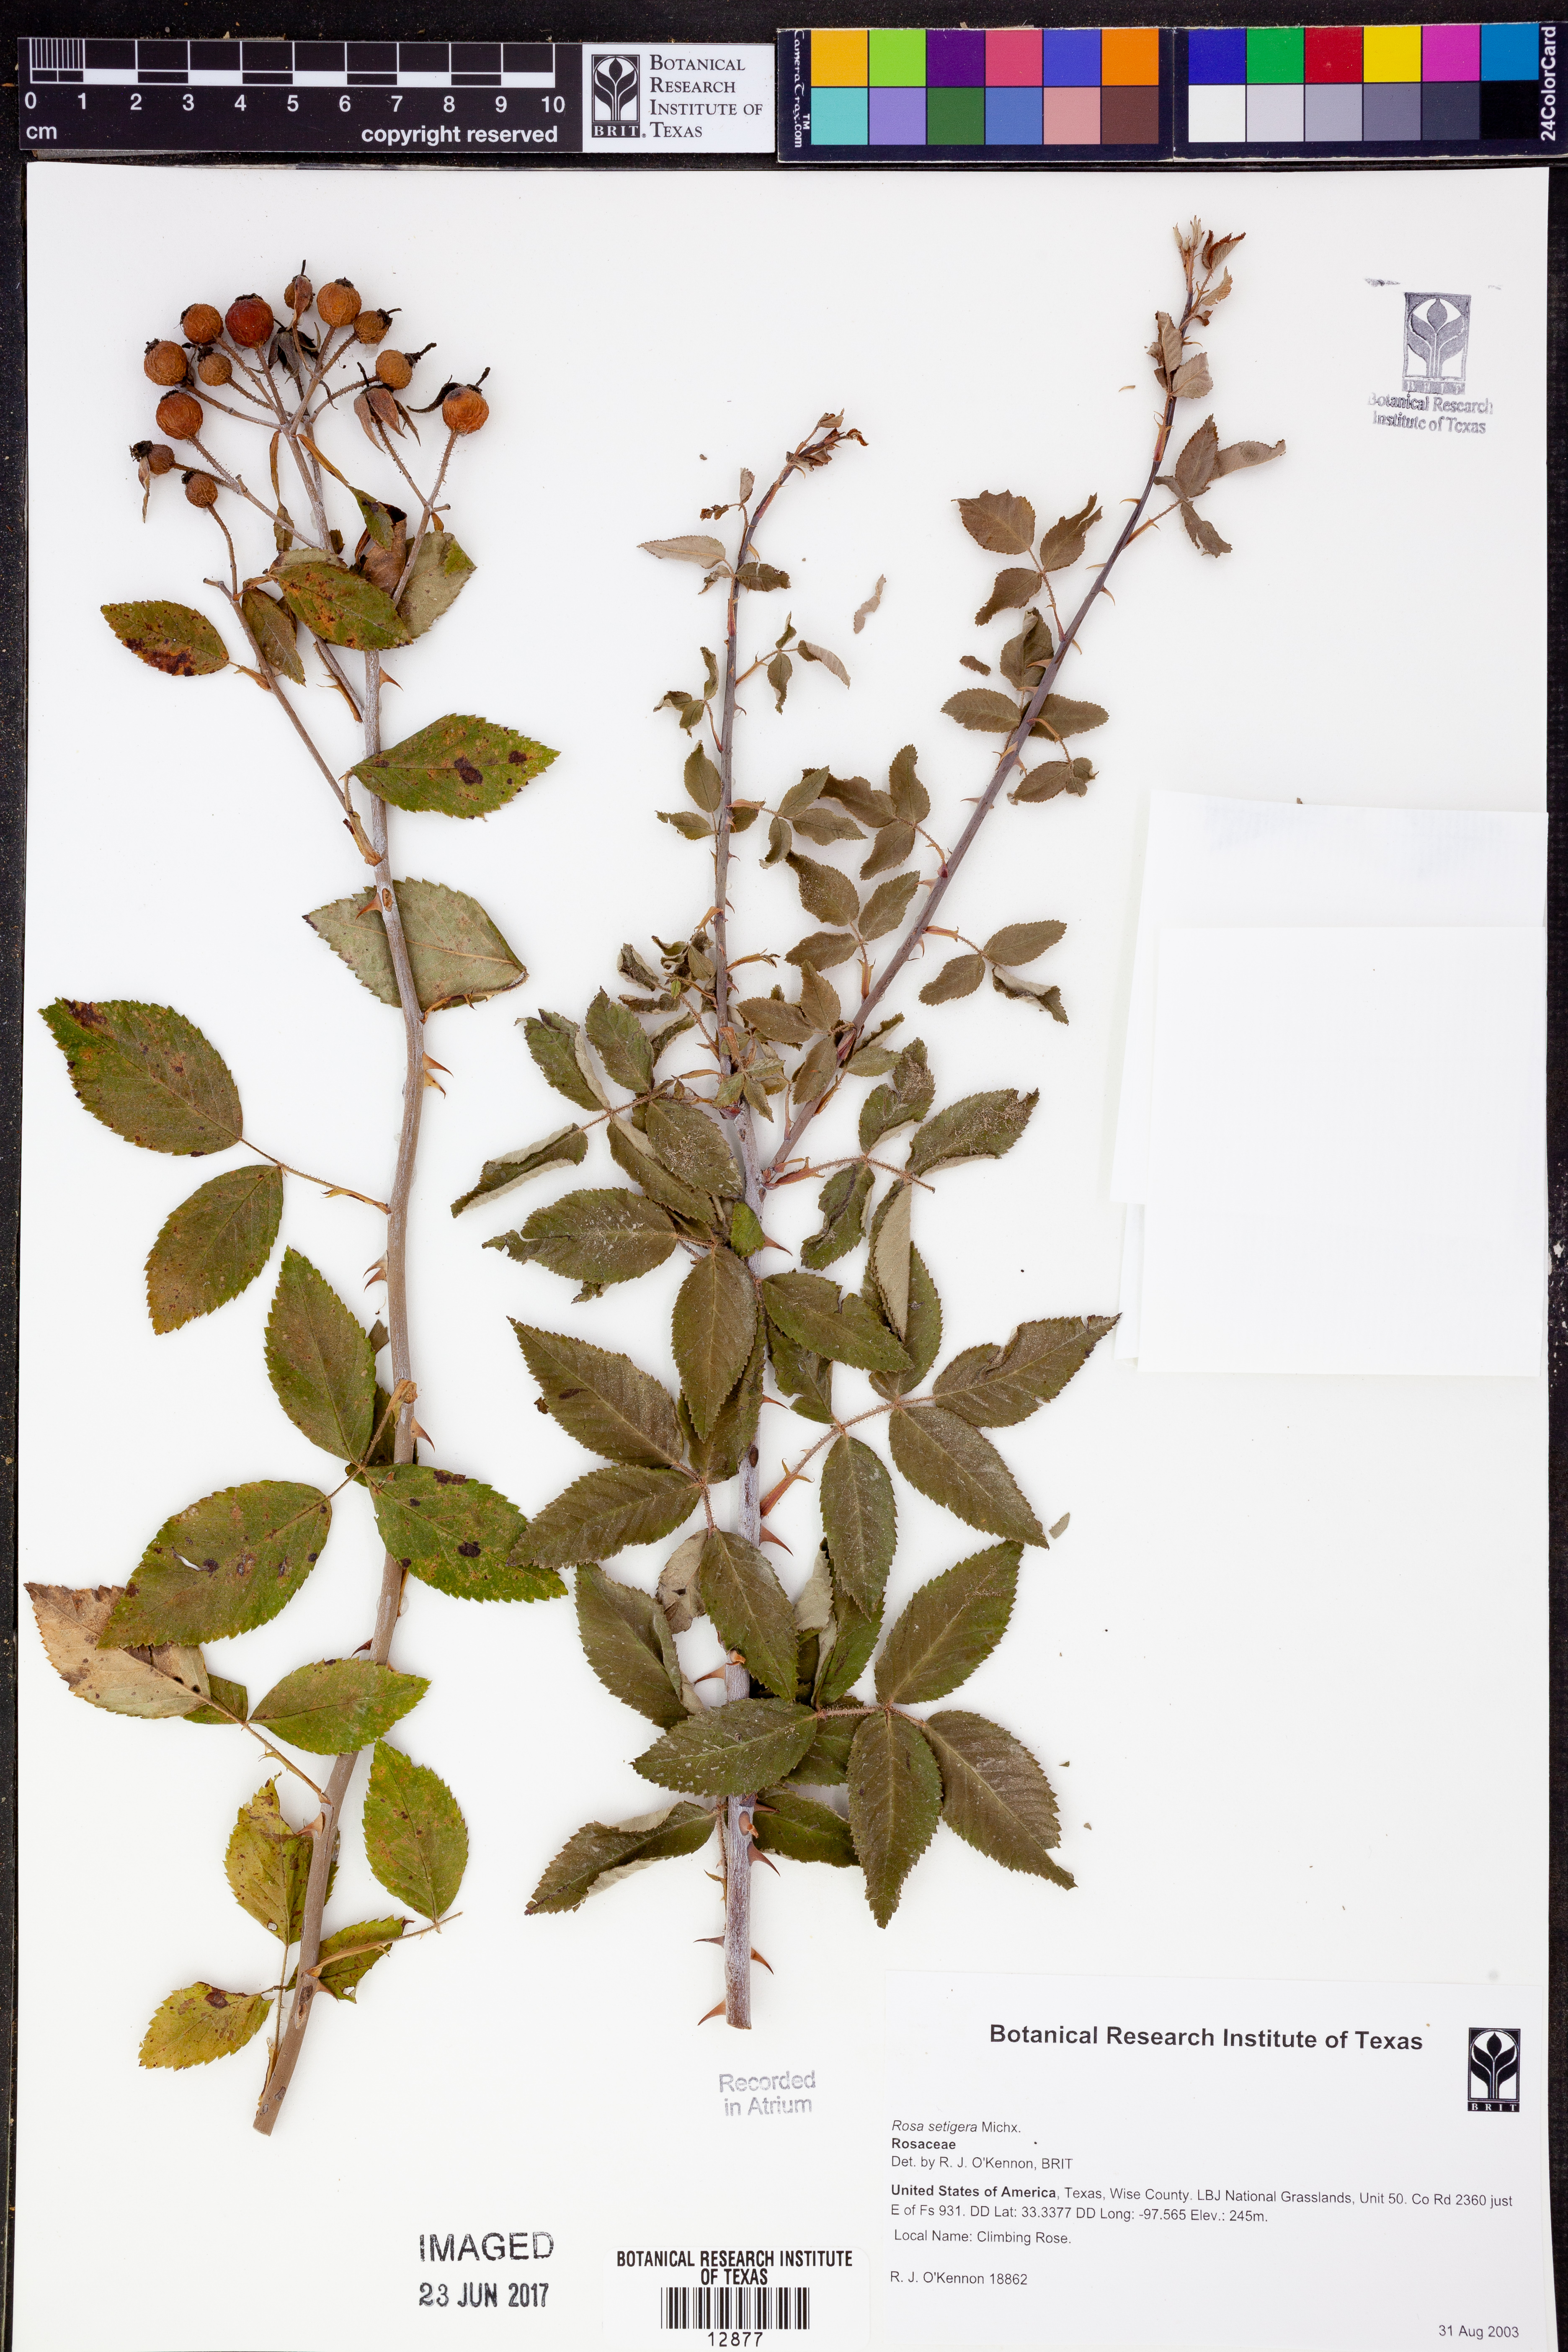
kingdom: Plantae
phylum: Tracheophyta
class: Magnoliopsida
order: Rosales
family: Rosaceae
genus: Rosa
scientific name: Rosa setigera
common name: Prairie rose
